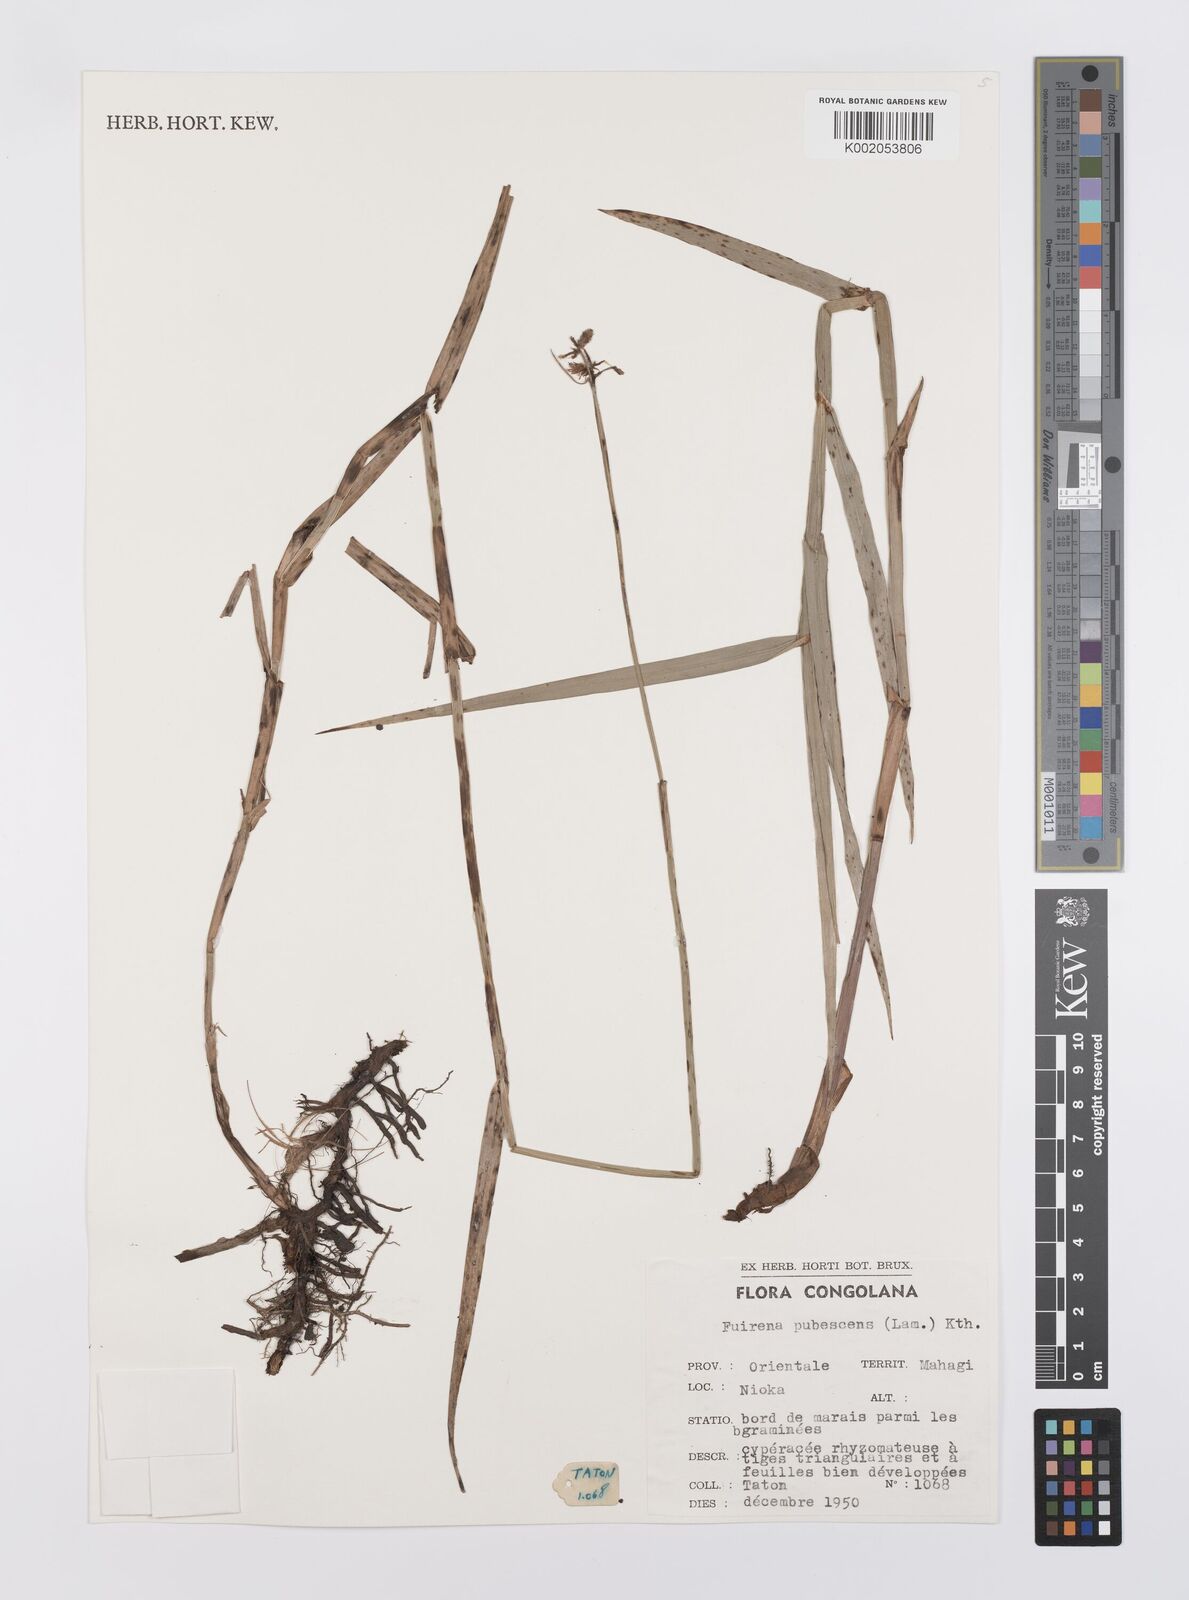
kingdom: Plantae
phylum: Tracheophyta
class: Liliopsida
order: Poales
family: Cyperaceae
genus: Fuirena
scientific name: Fuirena pubescens
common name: Hairy sedge
